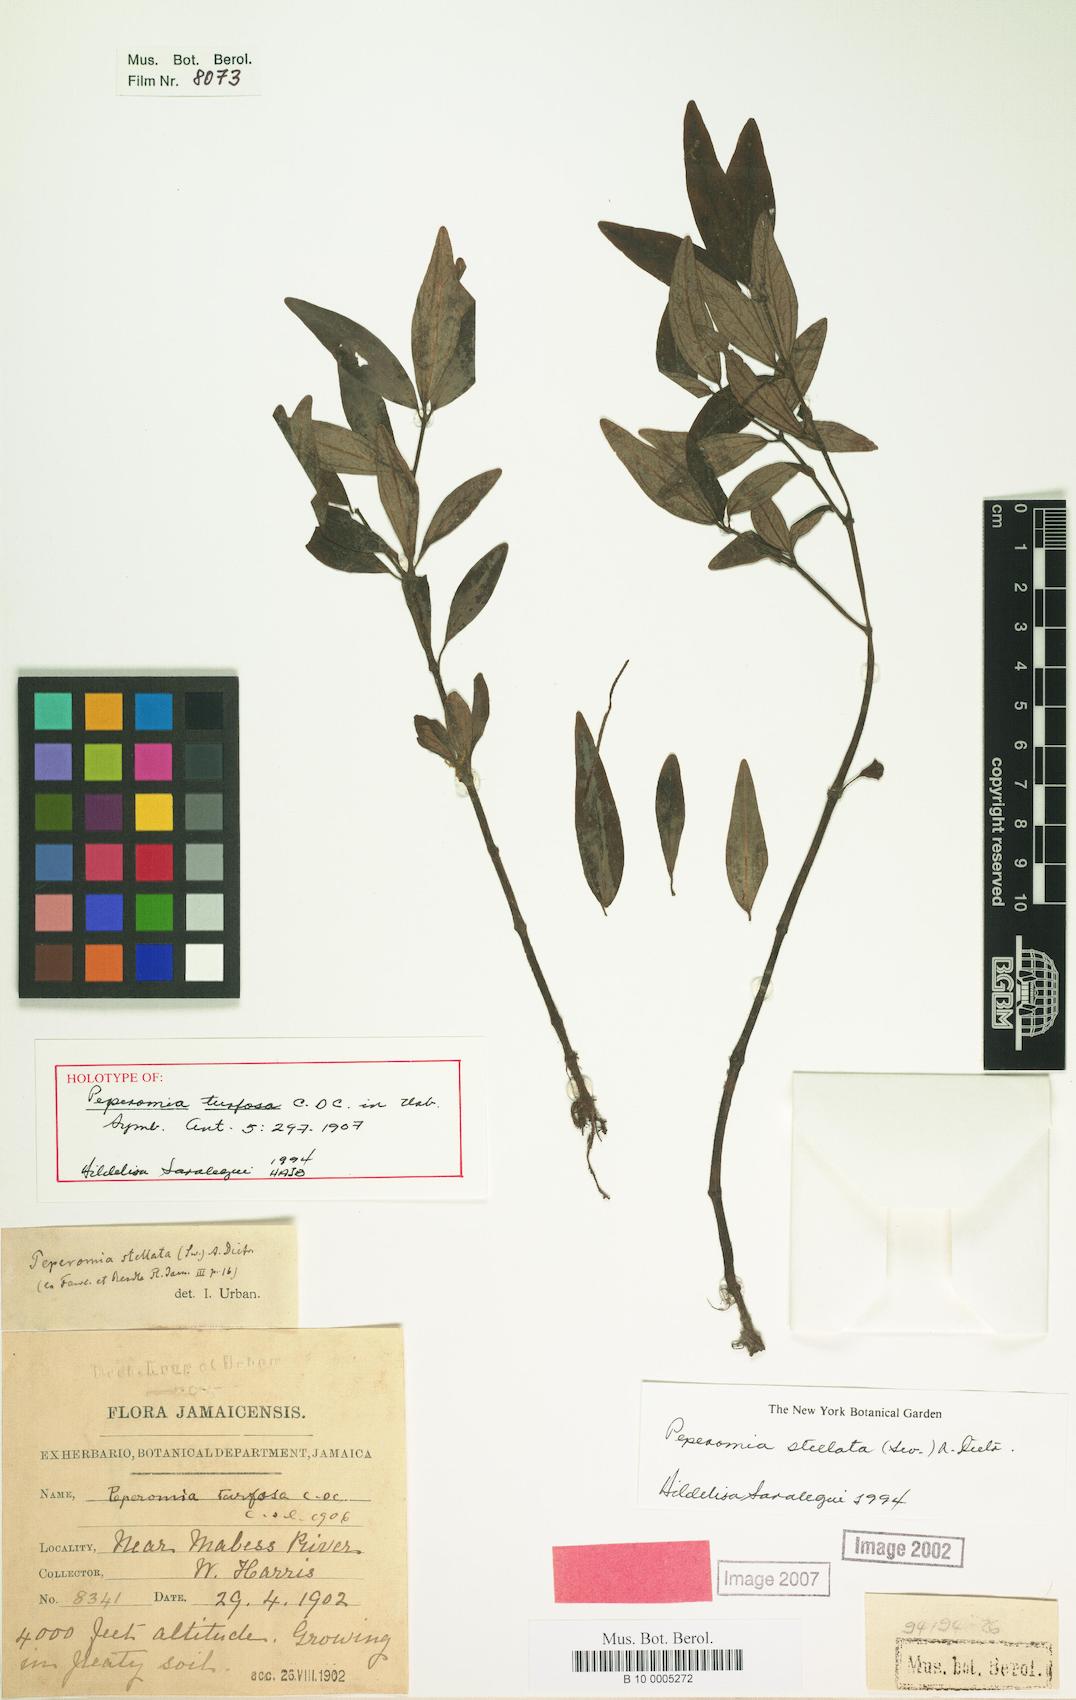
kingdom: Plantae
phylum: Tracheophyta
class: Magnoliopsida
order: Piperales
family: Piperaceae
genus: Peperomia
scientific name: Peperomia stellata
